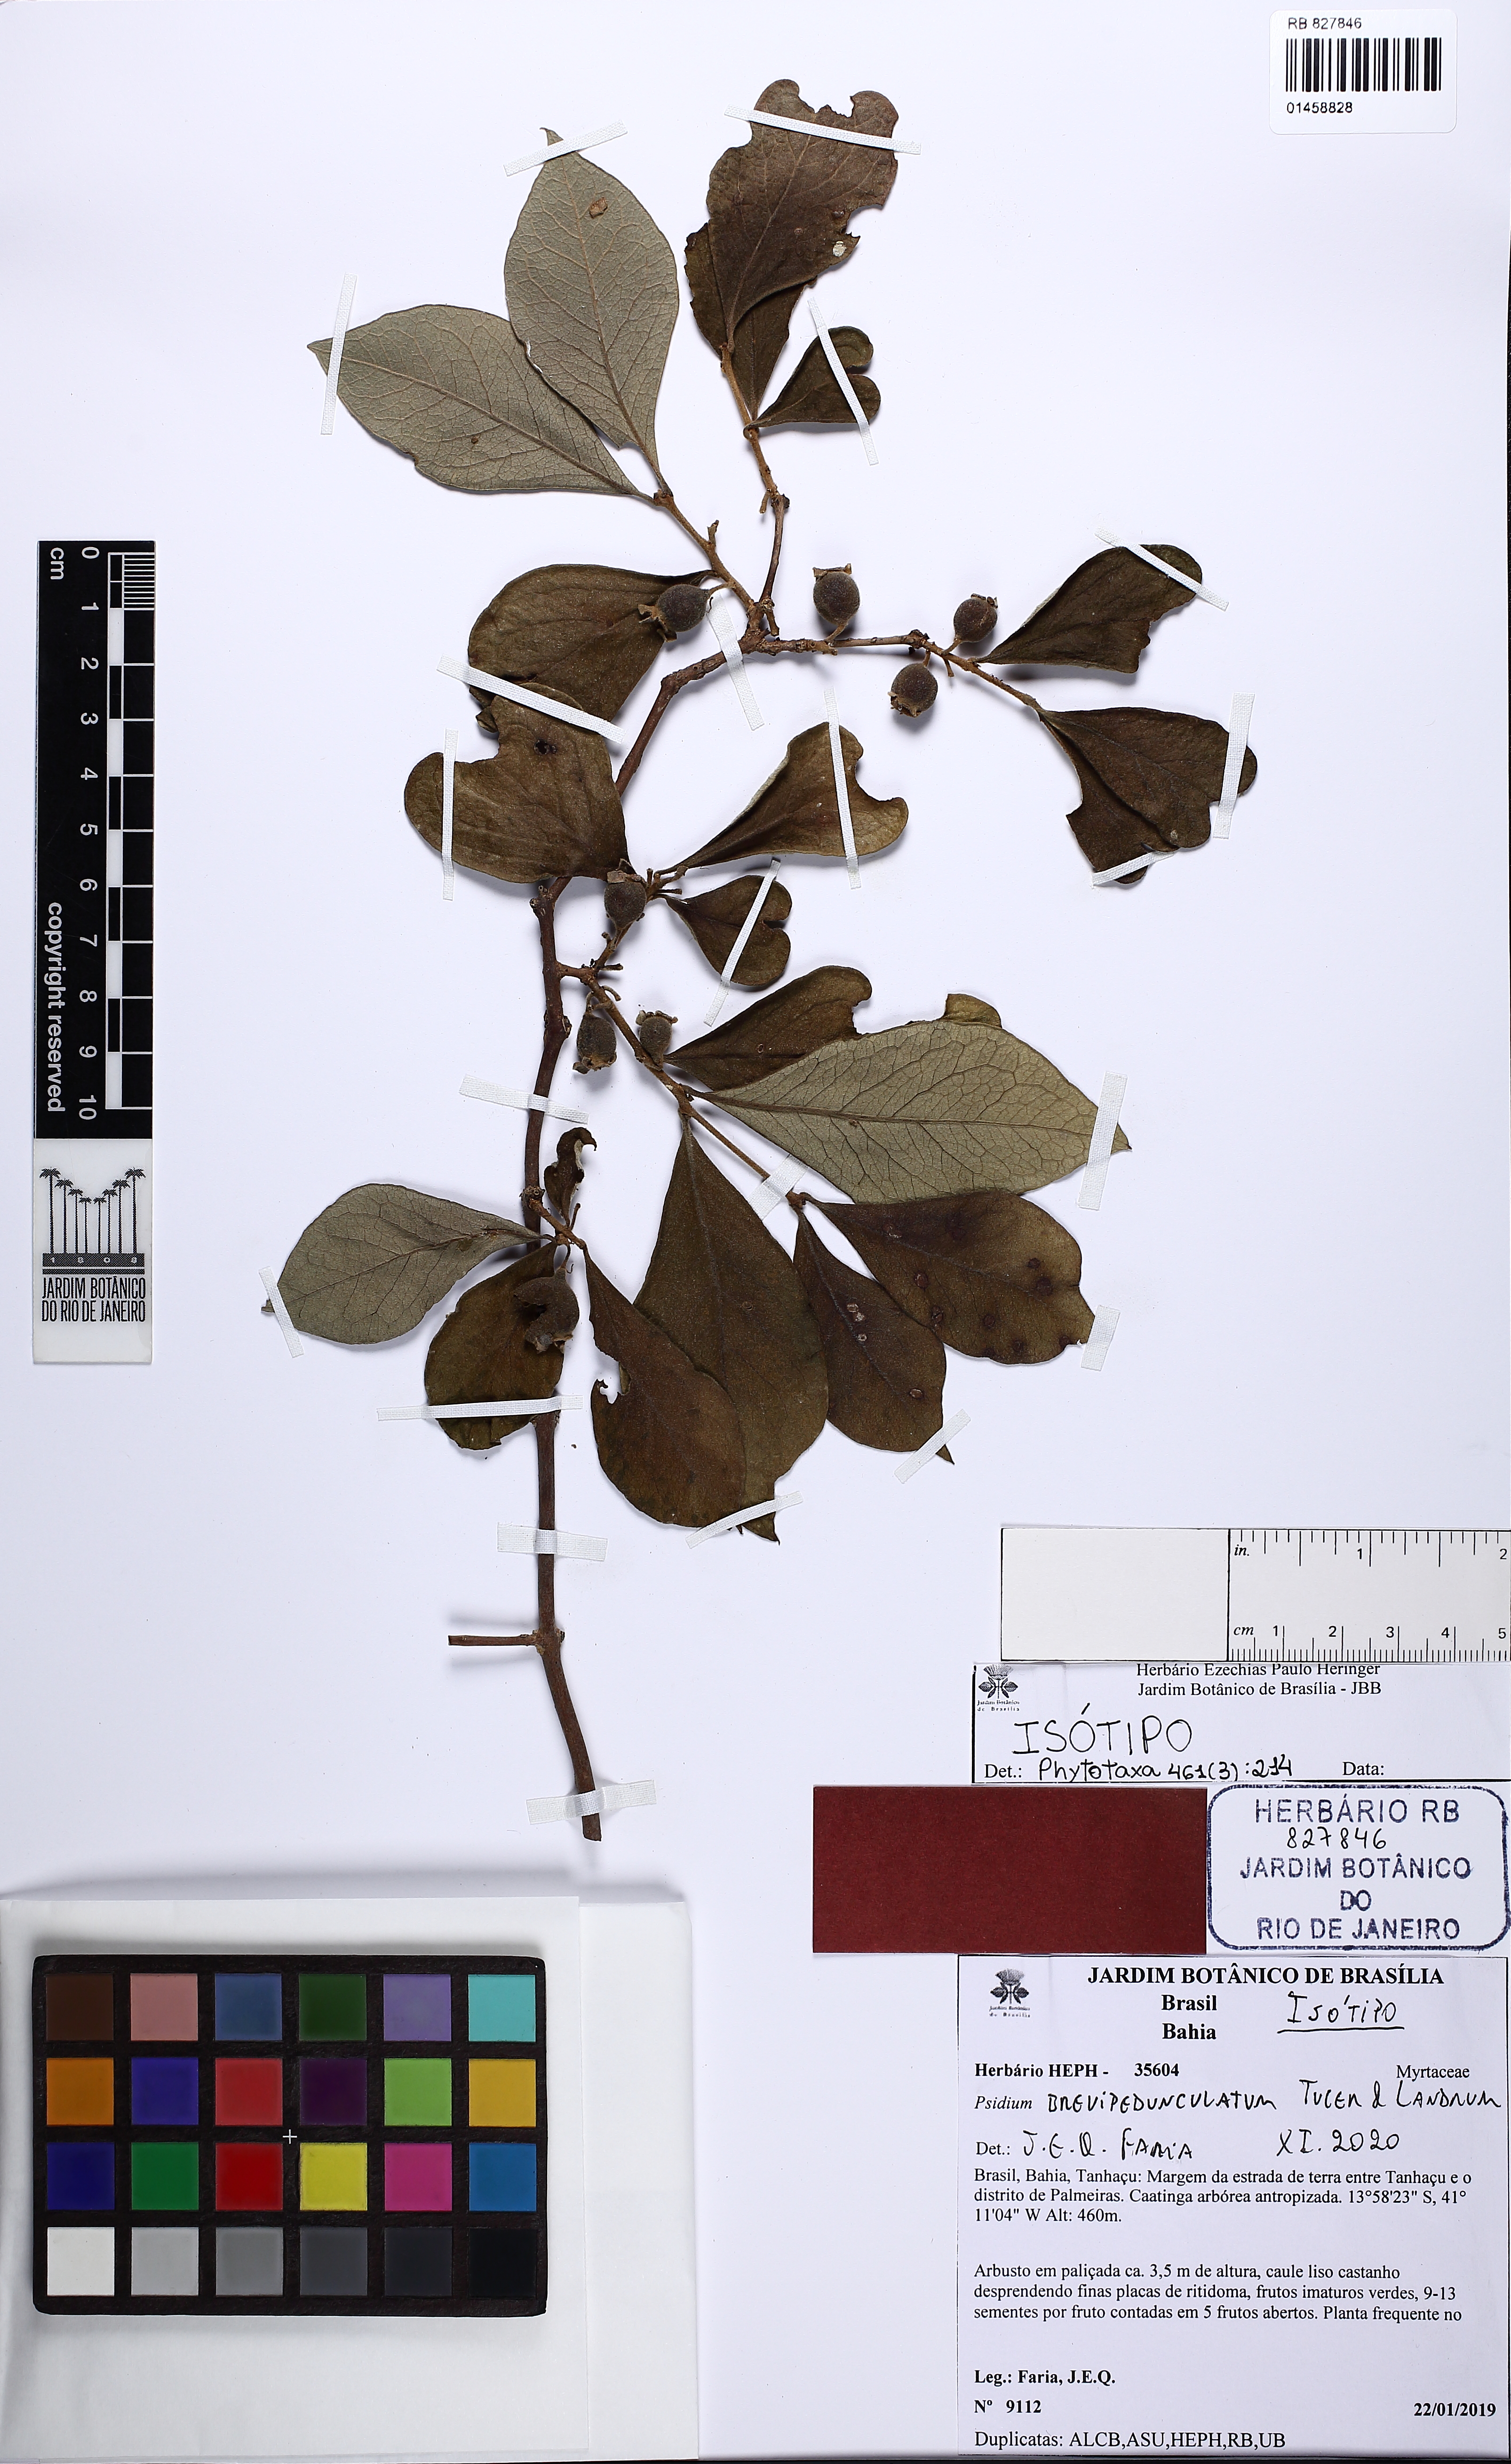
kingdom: Plantae
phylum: Tracheophyta
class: Magnoliopsida
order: Myrtales
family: Myrtaceae
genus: Psidium
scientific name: Psidium brevipedunculatum
